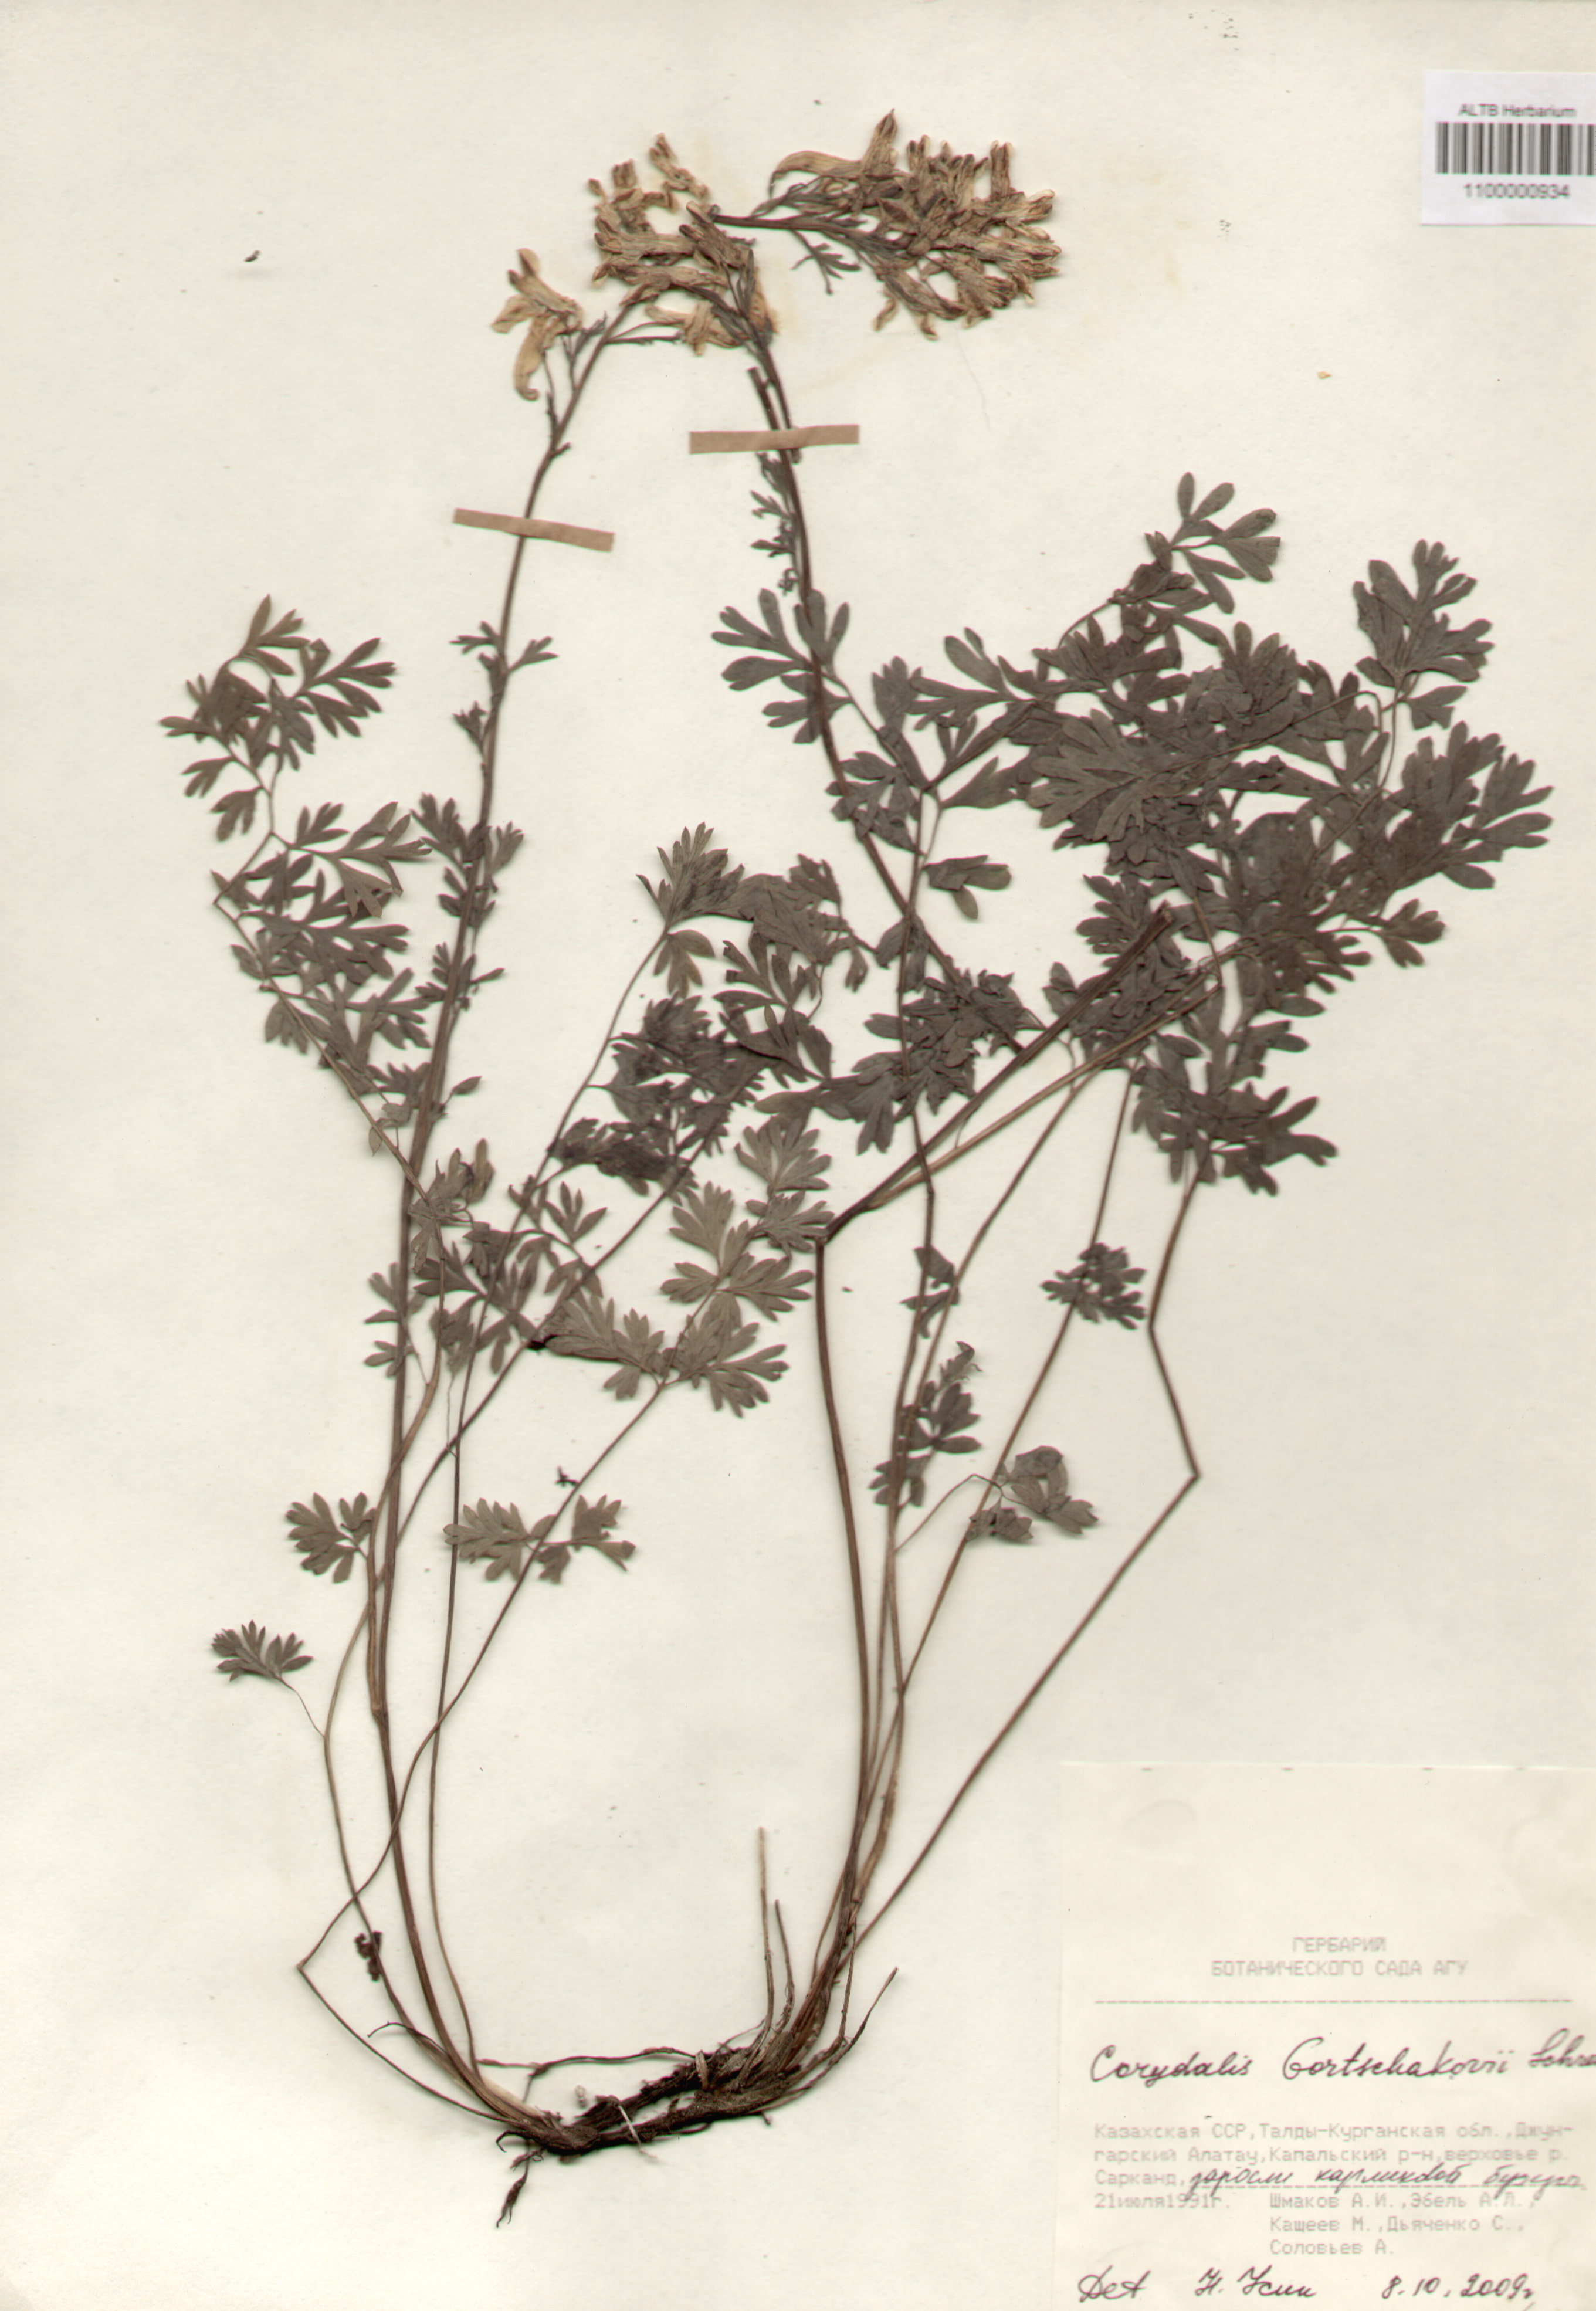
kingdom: Plantae
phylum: Tracheophyta
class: Magnoliopsida
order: Ranunculales
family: Papaveraceae
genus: Corydalis
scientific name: Corydalis
